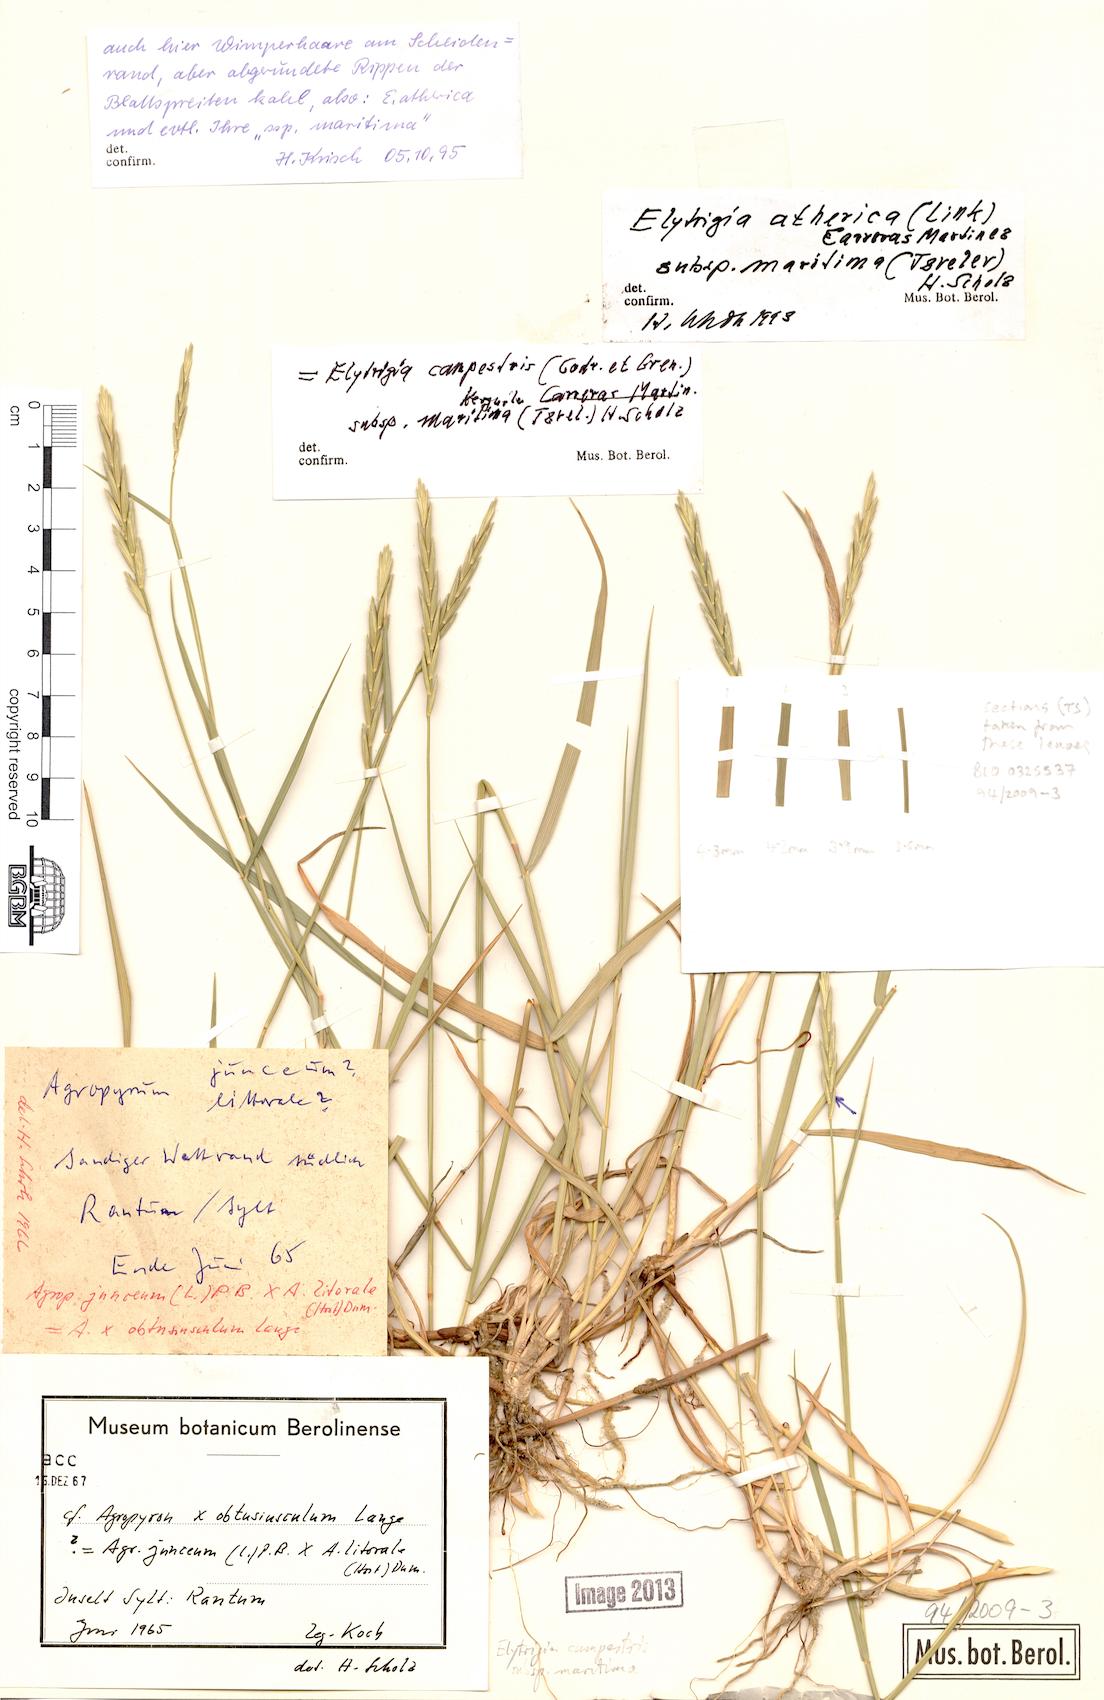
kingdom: Plantae
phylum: Tracheophyta
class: Liliopsida
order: Poales
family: Poaceae
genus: Elymus
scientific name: Elymus repens
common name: Quackgrass
